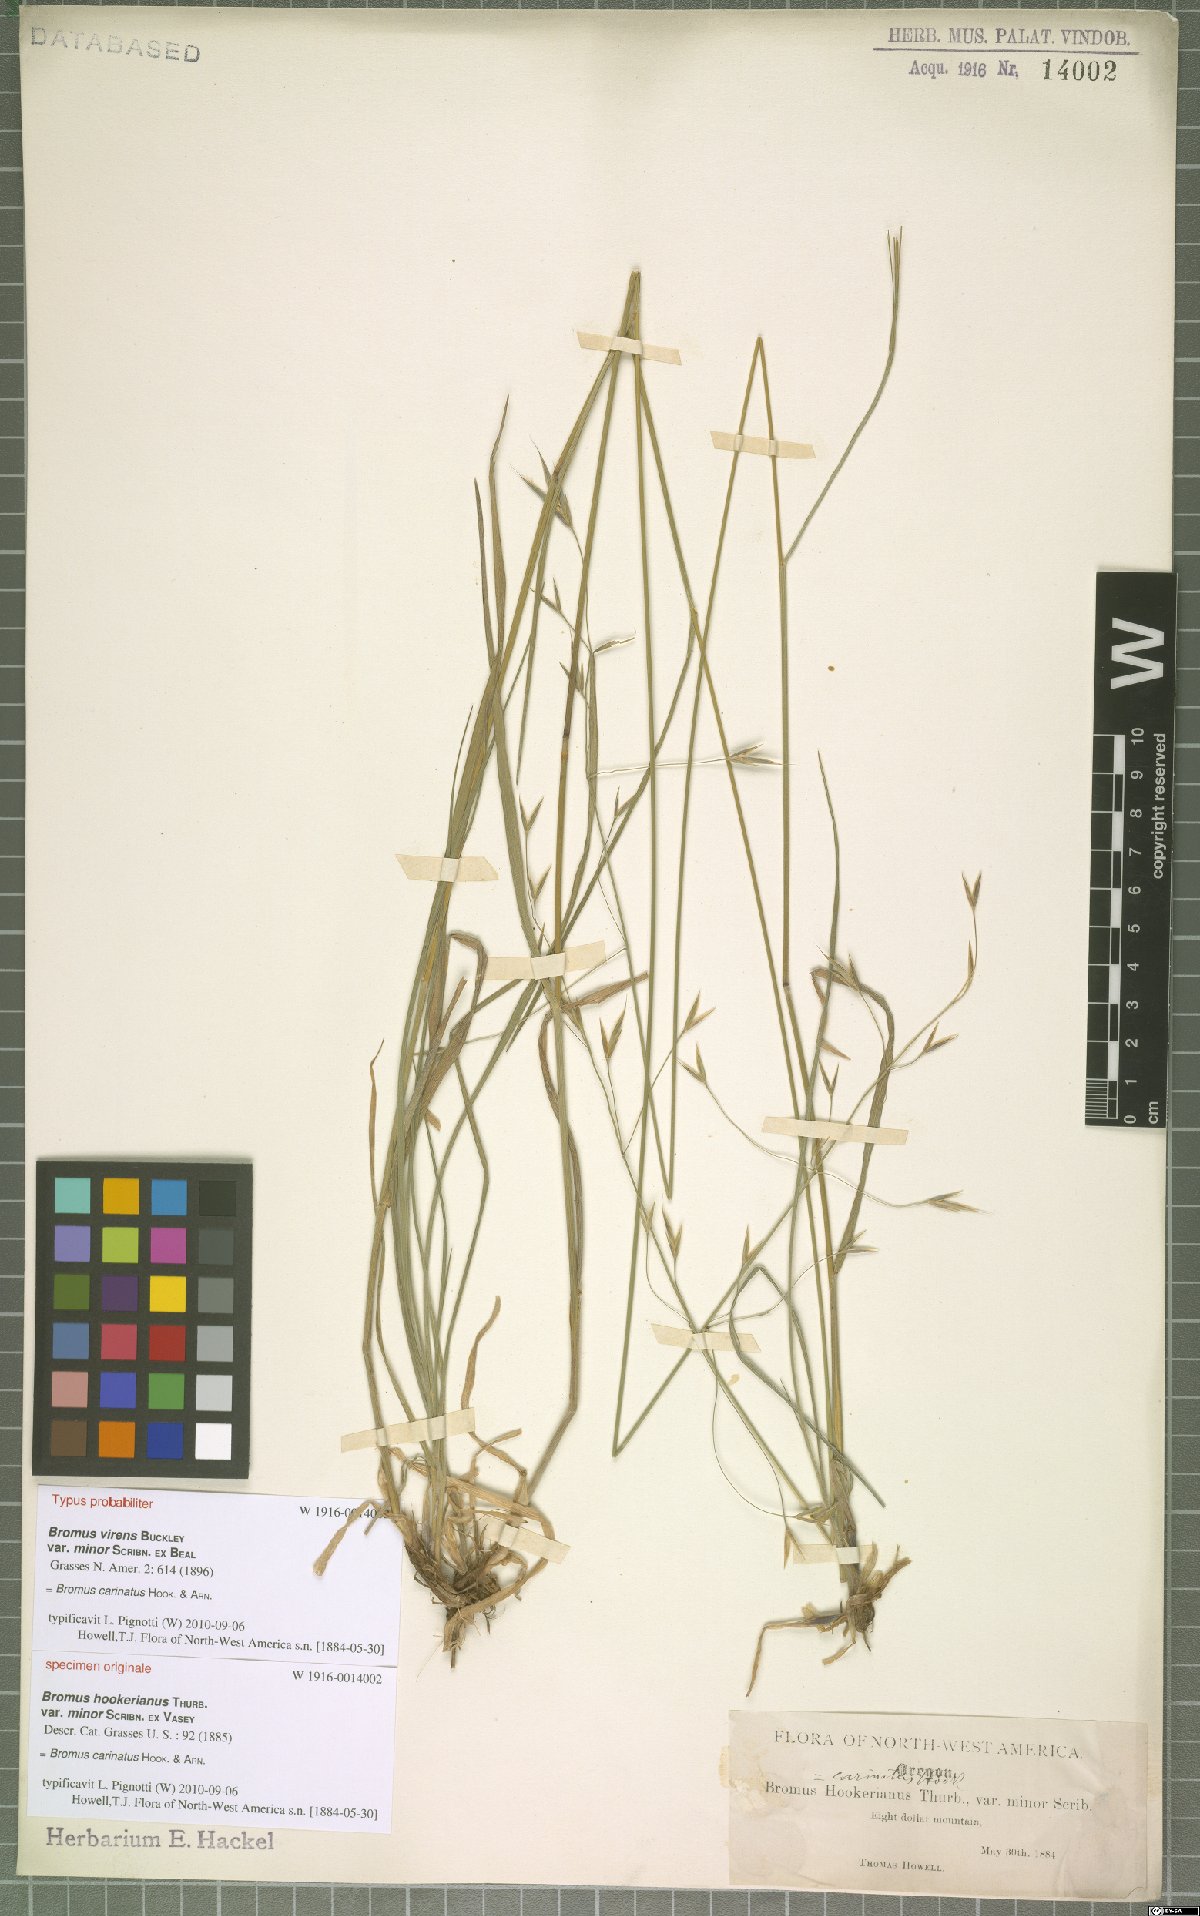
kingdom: Plantae
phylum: Tracheophyta
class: Liliopsida
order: Poales
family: Poaceae
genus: Bromus
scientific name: Bromus carinatus
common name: Mountain brome
